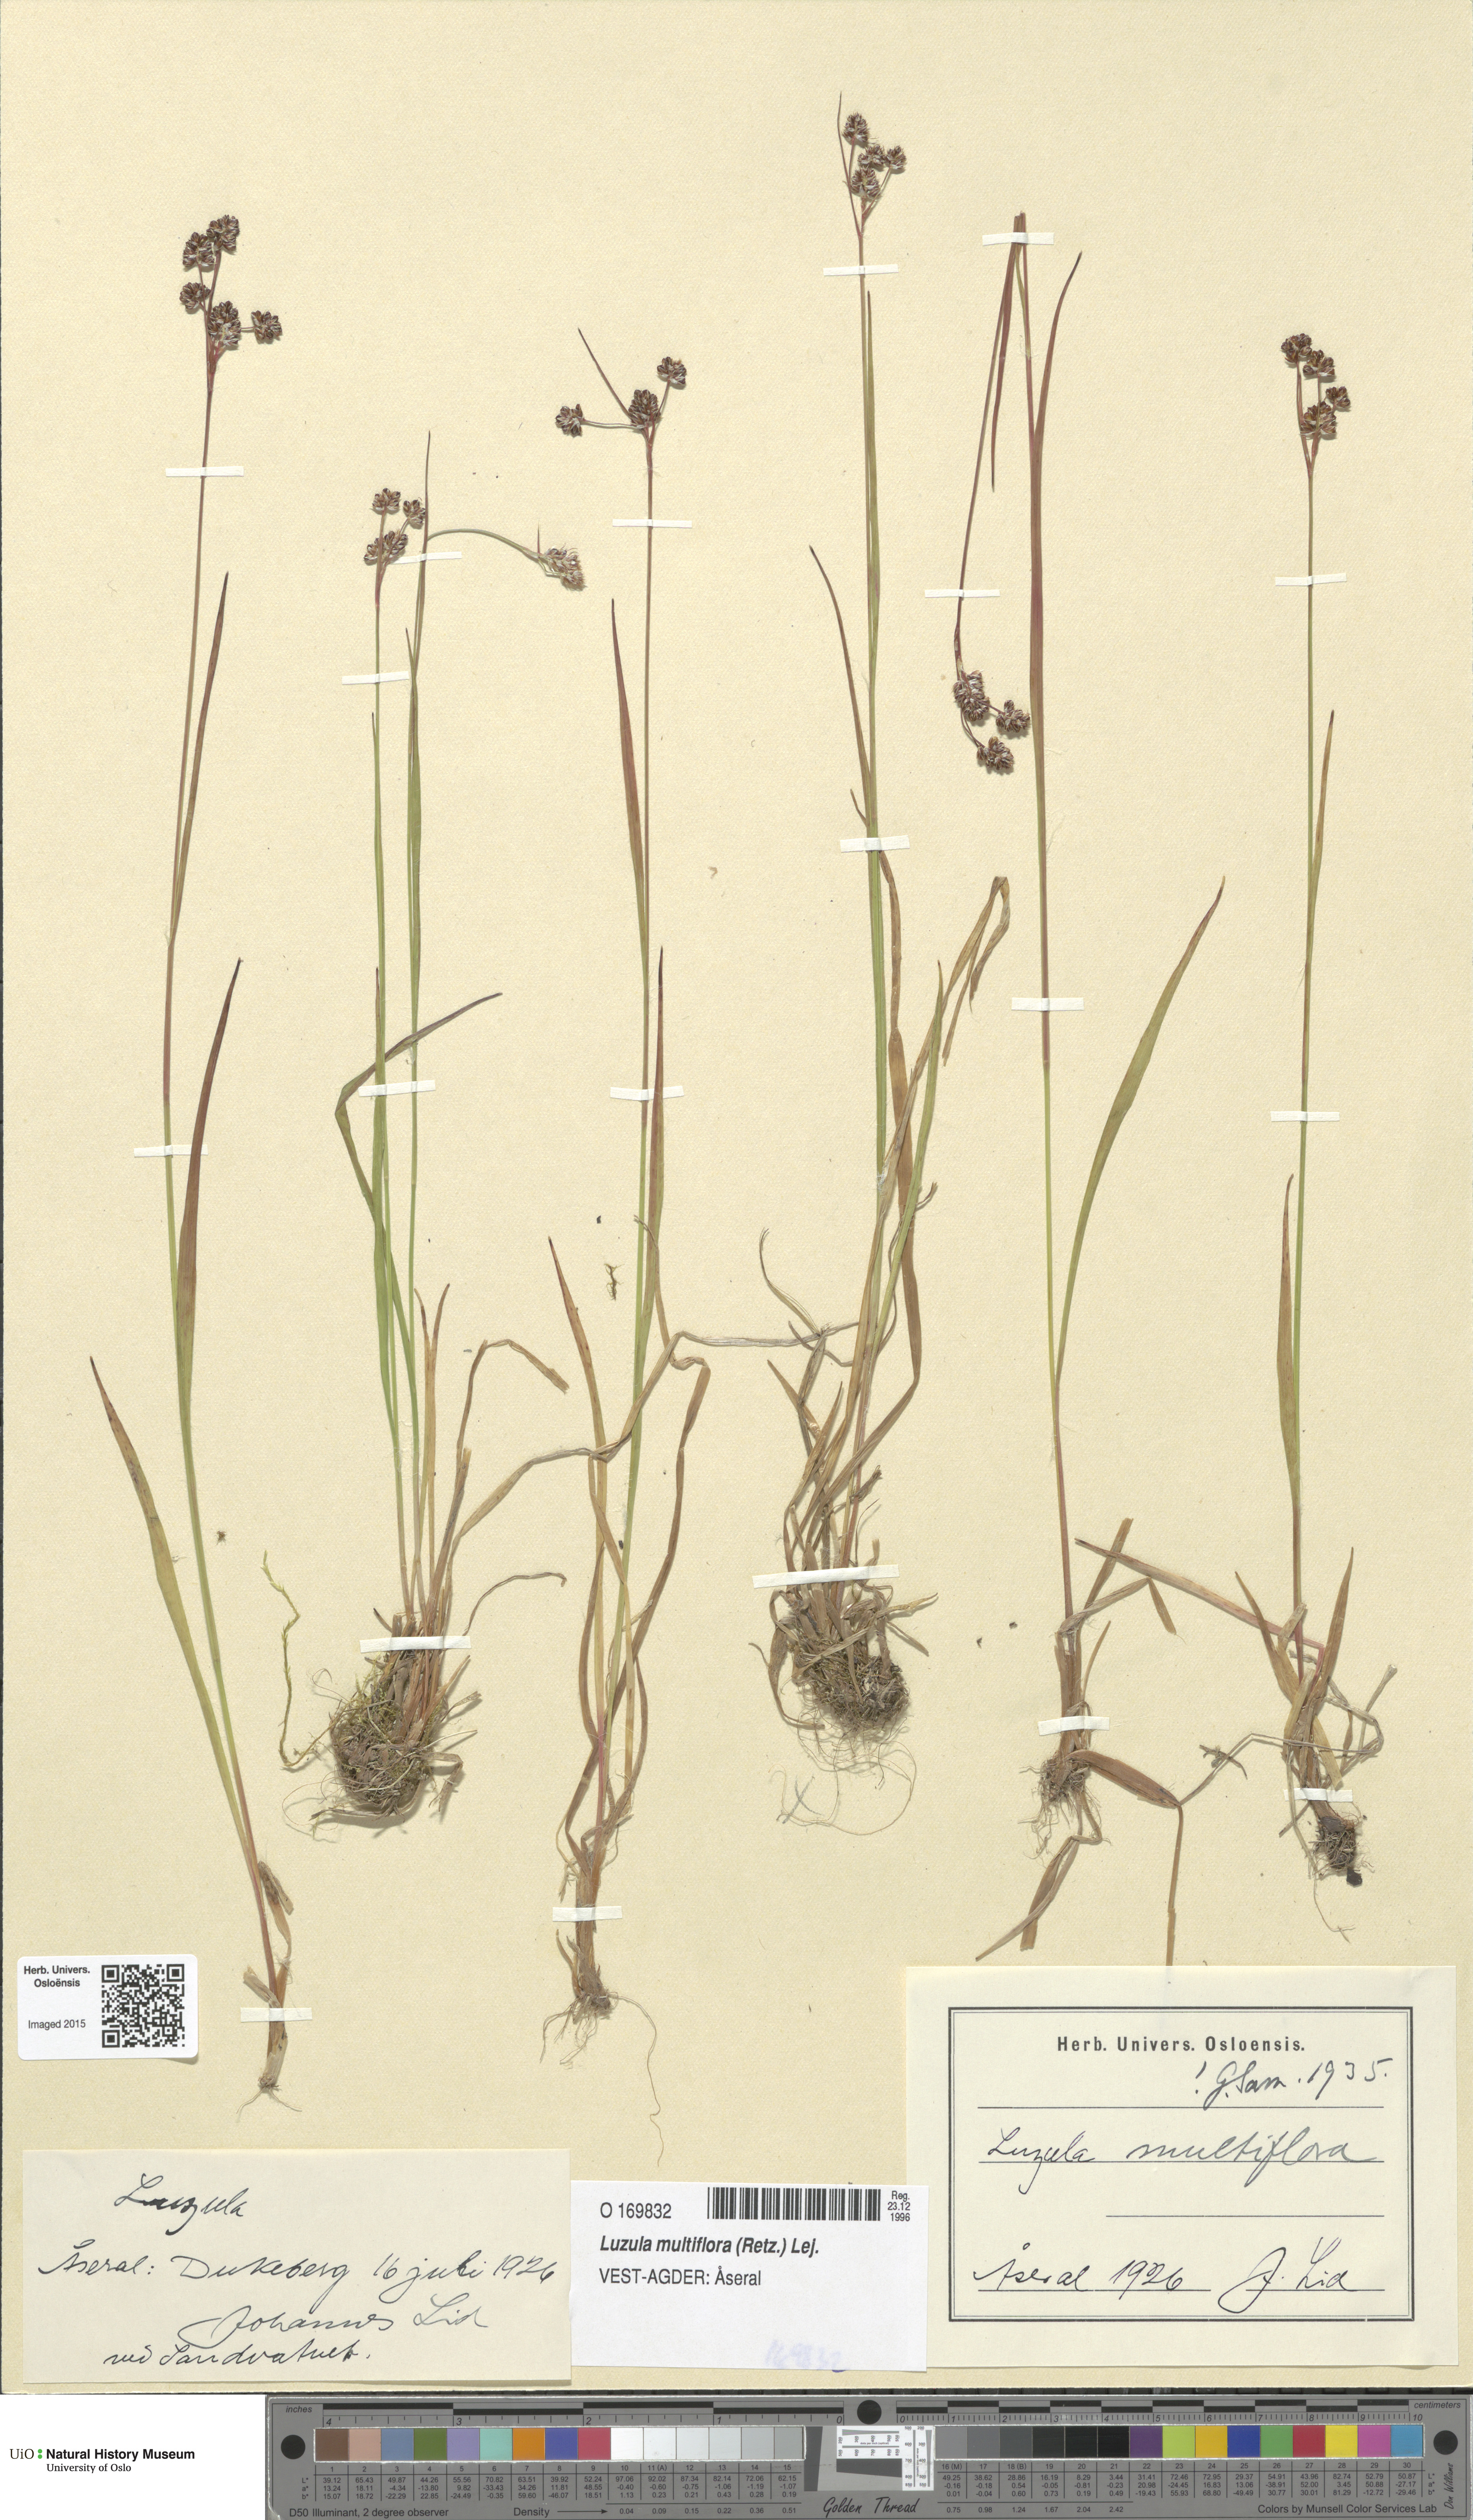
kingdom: Plantae
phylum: Tracheophyta
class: Liliopsida
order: Poales
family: Juncaceae
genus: Luzula
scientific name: Luzula multiflora
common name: Heath wood-rush
